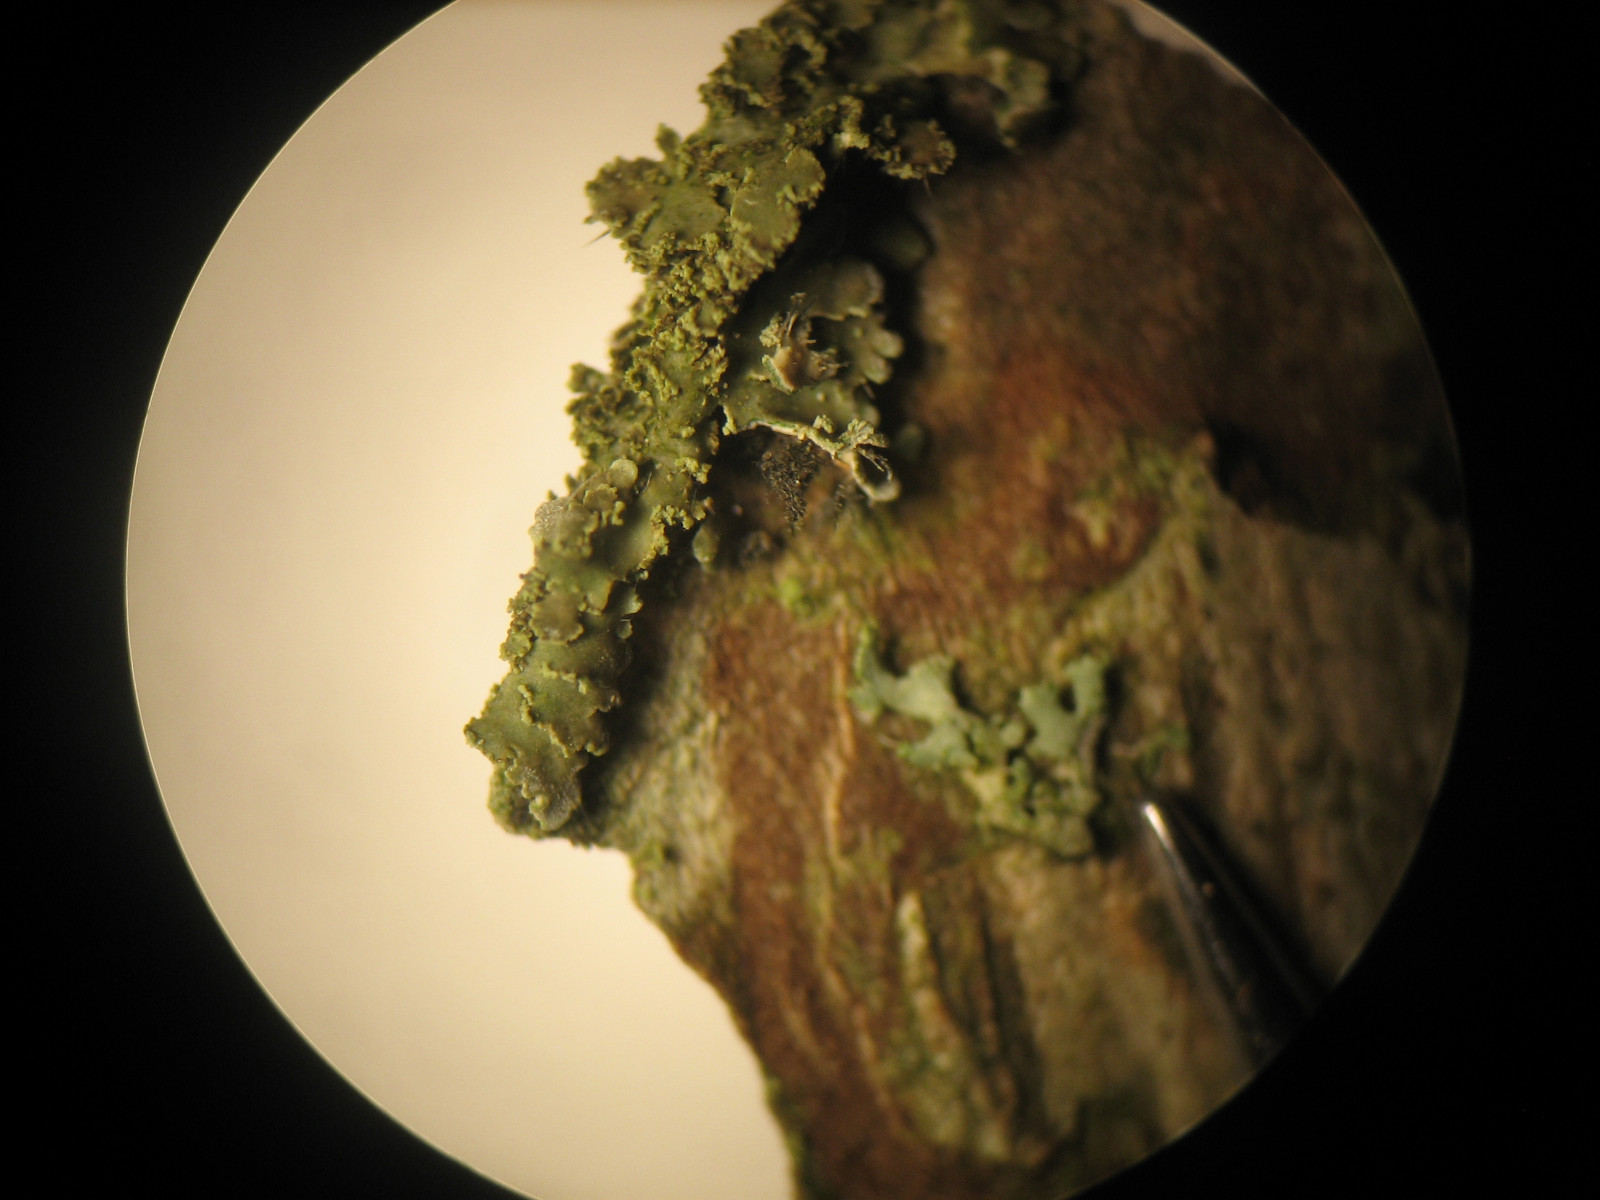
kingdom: Fungi
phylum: Ascomycota
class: Lecanoromycetes
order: Caliciales
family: Physciaceae
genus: Physconia
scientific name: Physconia perisidiosa
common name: liden dugrosetlav
